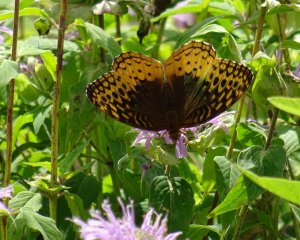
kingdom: Animalia
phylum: Arthropoda
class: Insecta
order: Lepidoptera
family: Nymphalidae
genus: Speyeria
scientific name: Speyeria cybele
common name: Great Spangled Fritillary
